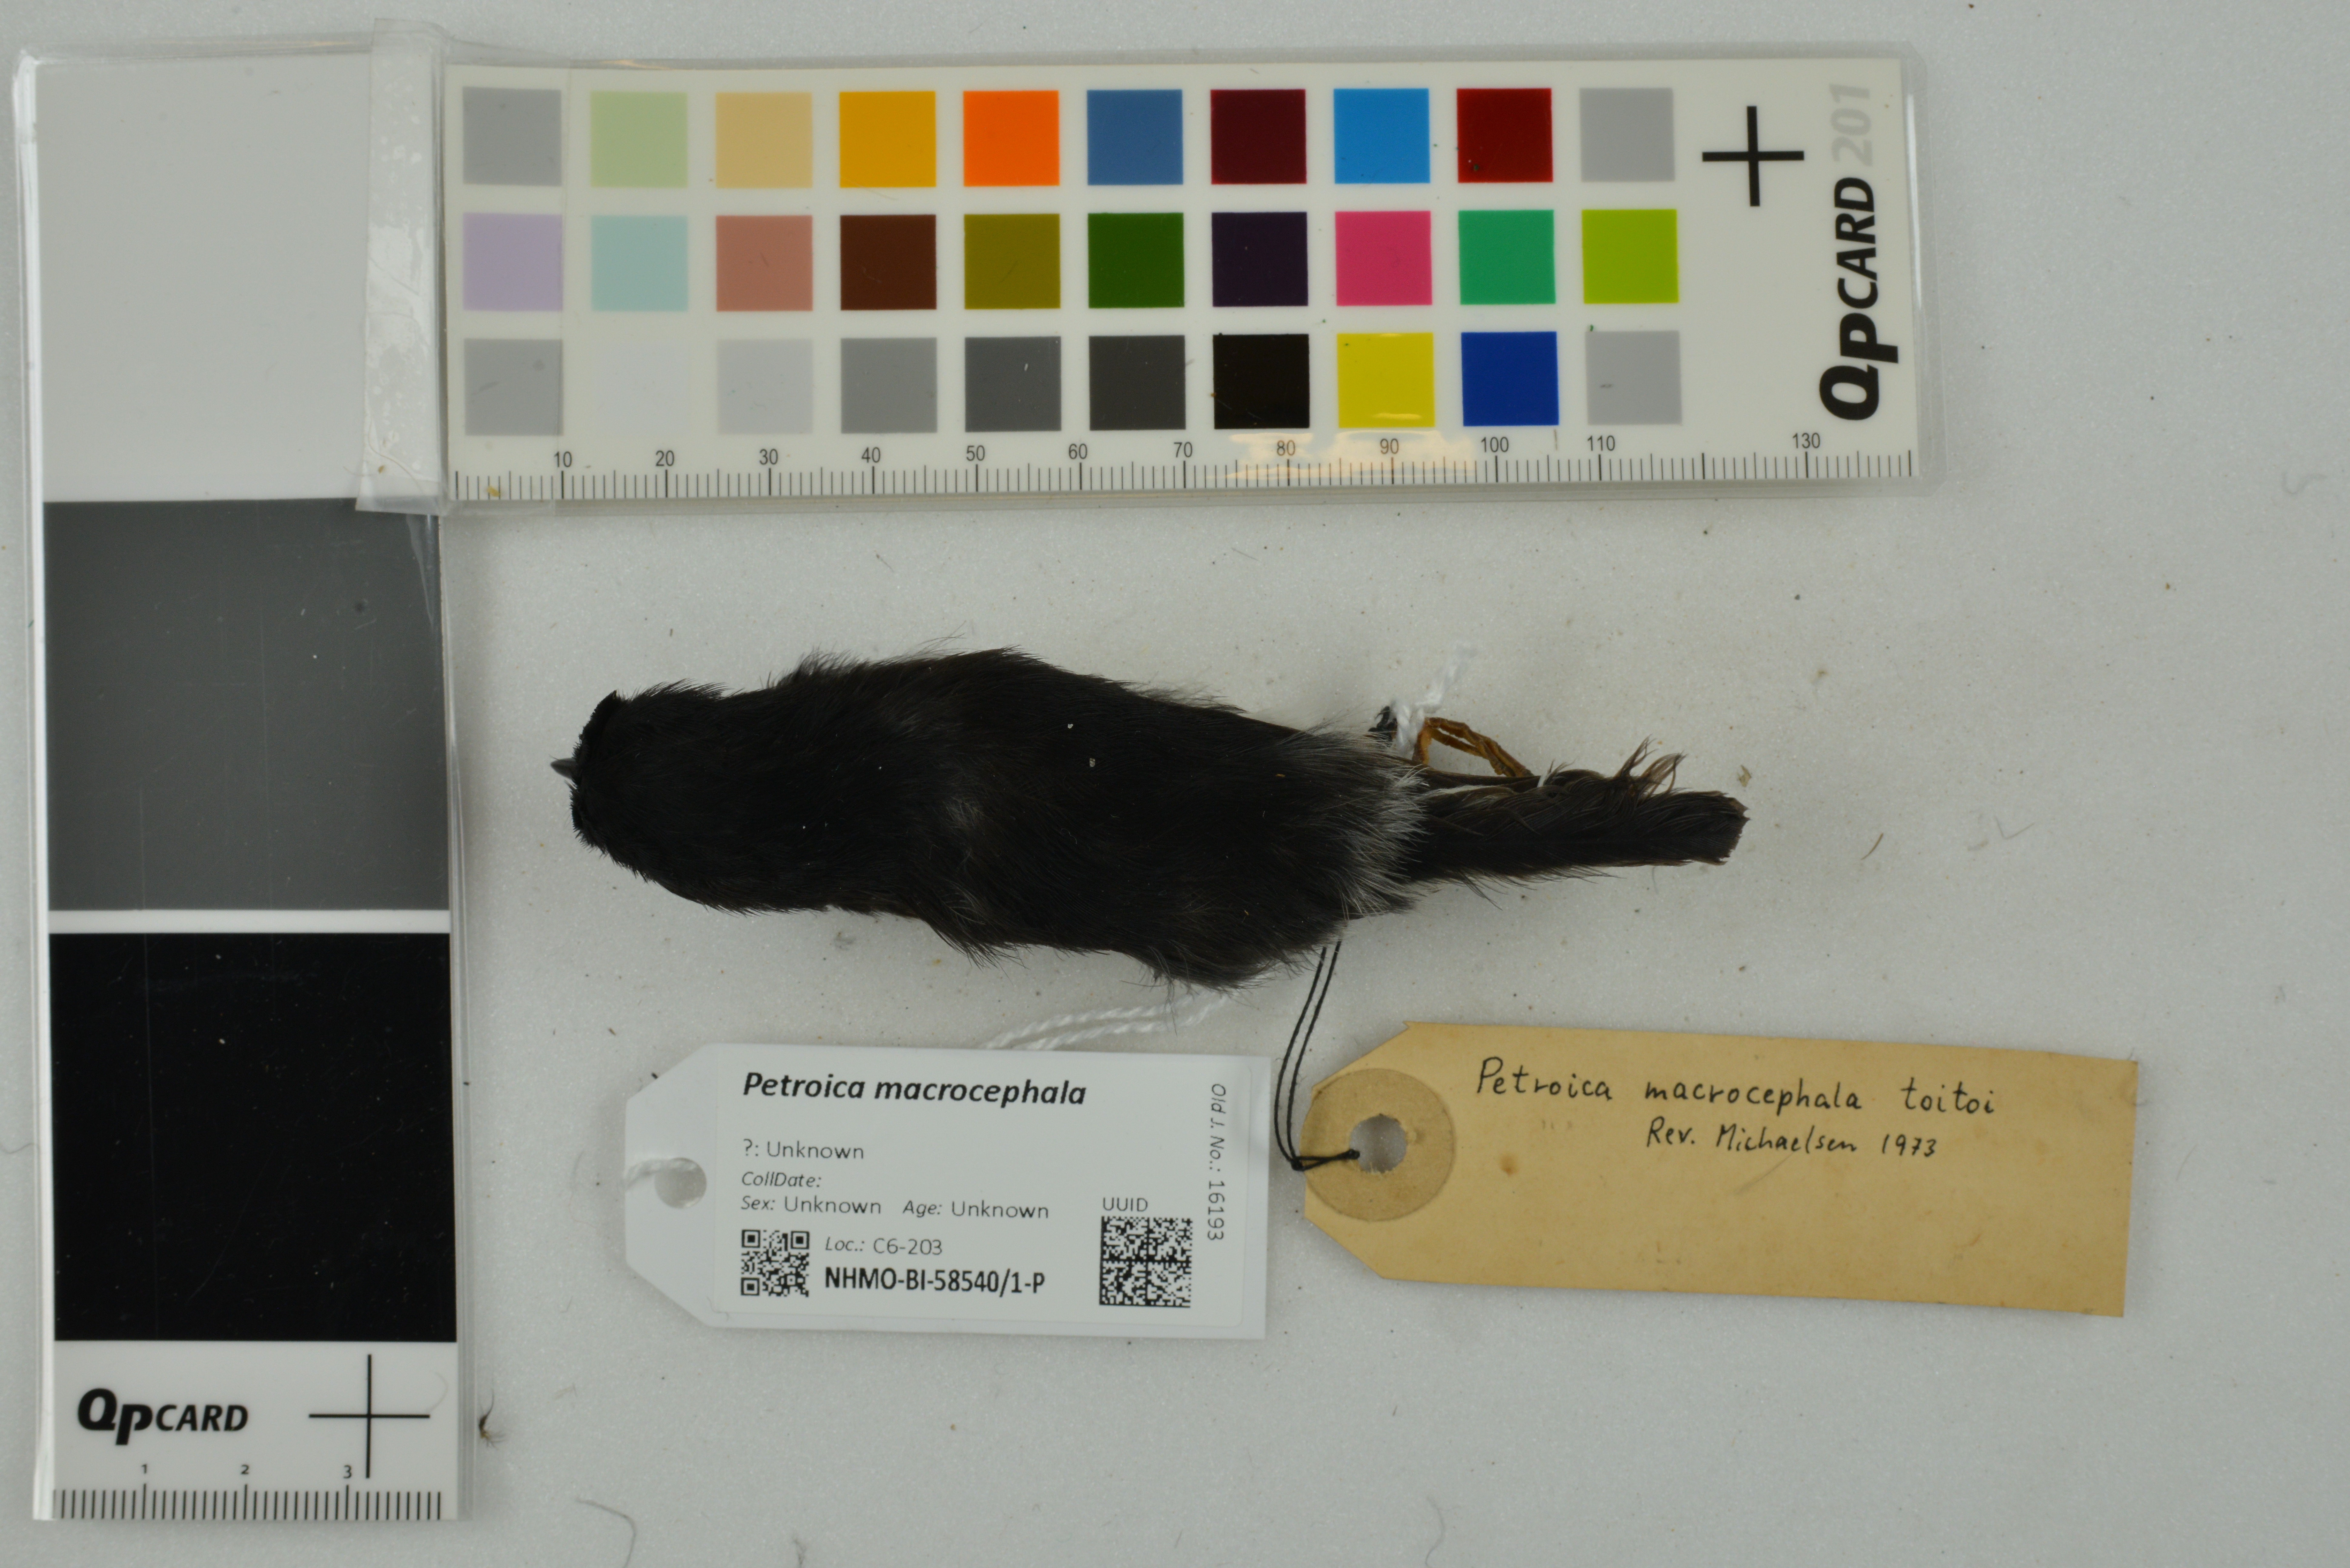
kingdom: Animalia
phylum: Chordata
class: Aves
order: Passeriformes
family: Petroicidae
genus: Petroica
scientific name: Petroica macrocephala
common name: Tomtit
